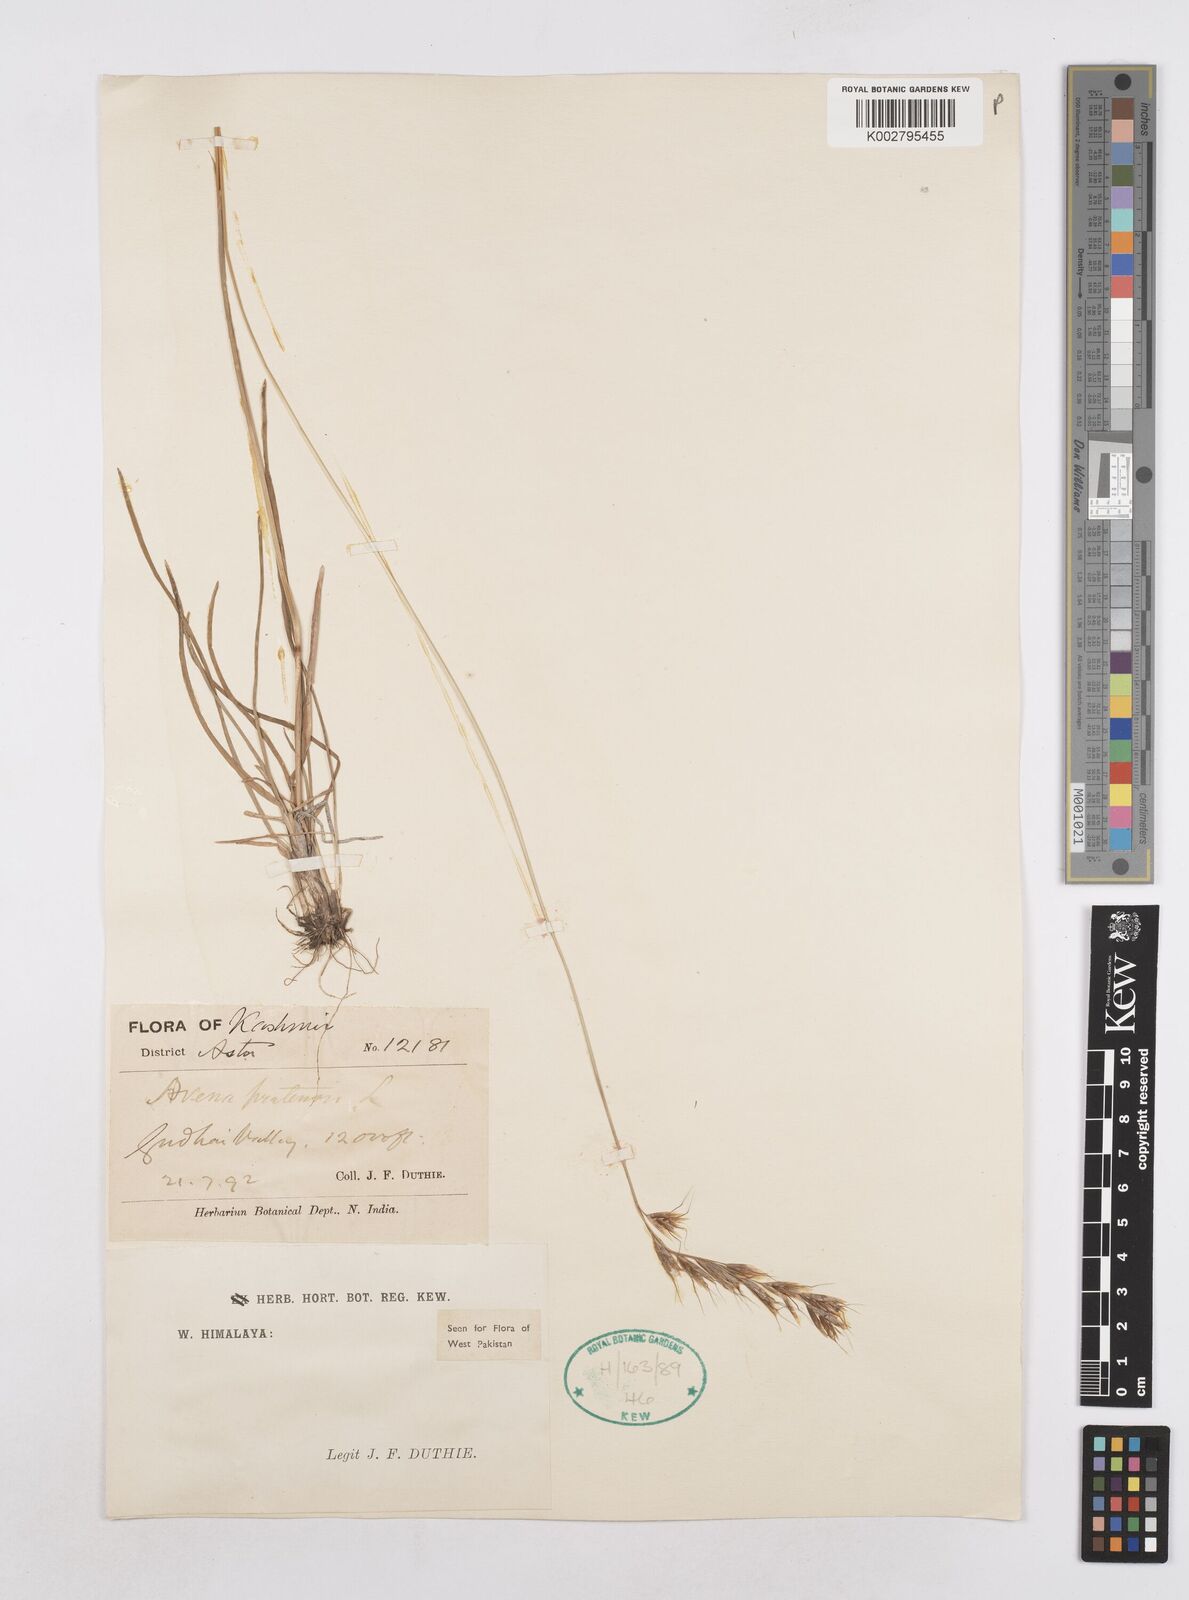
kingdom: Plantae
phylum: Tracheophyta
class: Liliopsida
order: Poales
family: Poaceae
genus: Helictochloa
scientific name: Helictochloa pratensis
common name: Meadow oat grass
